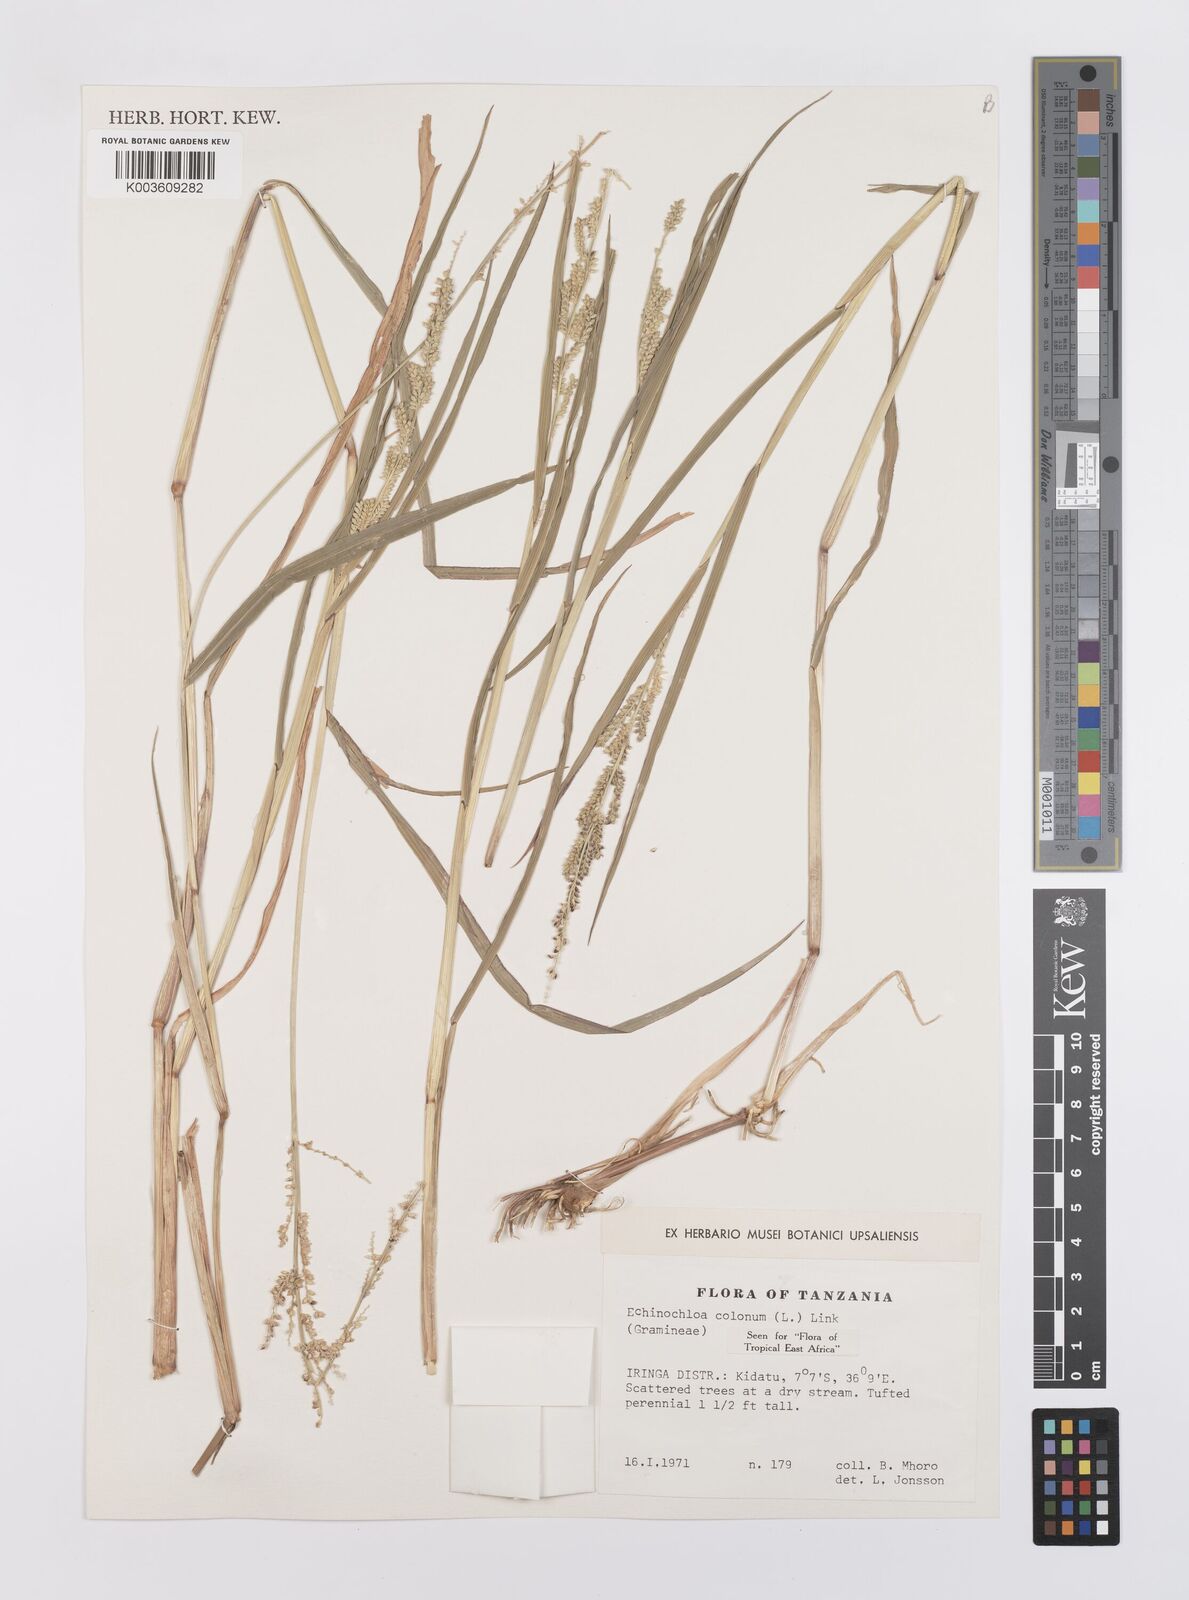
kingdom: Plantae
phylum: Tracheophyta
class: Liliopsida
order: Poales
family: Poaceae
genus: Echinochloa
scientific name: Echinochloa colonum
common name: Jungle rice
